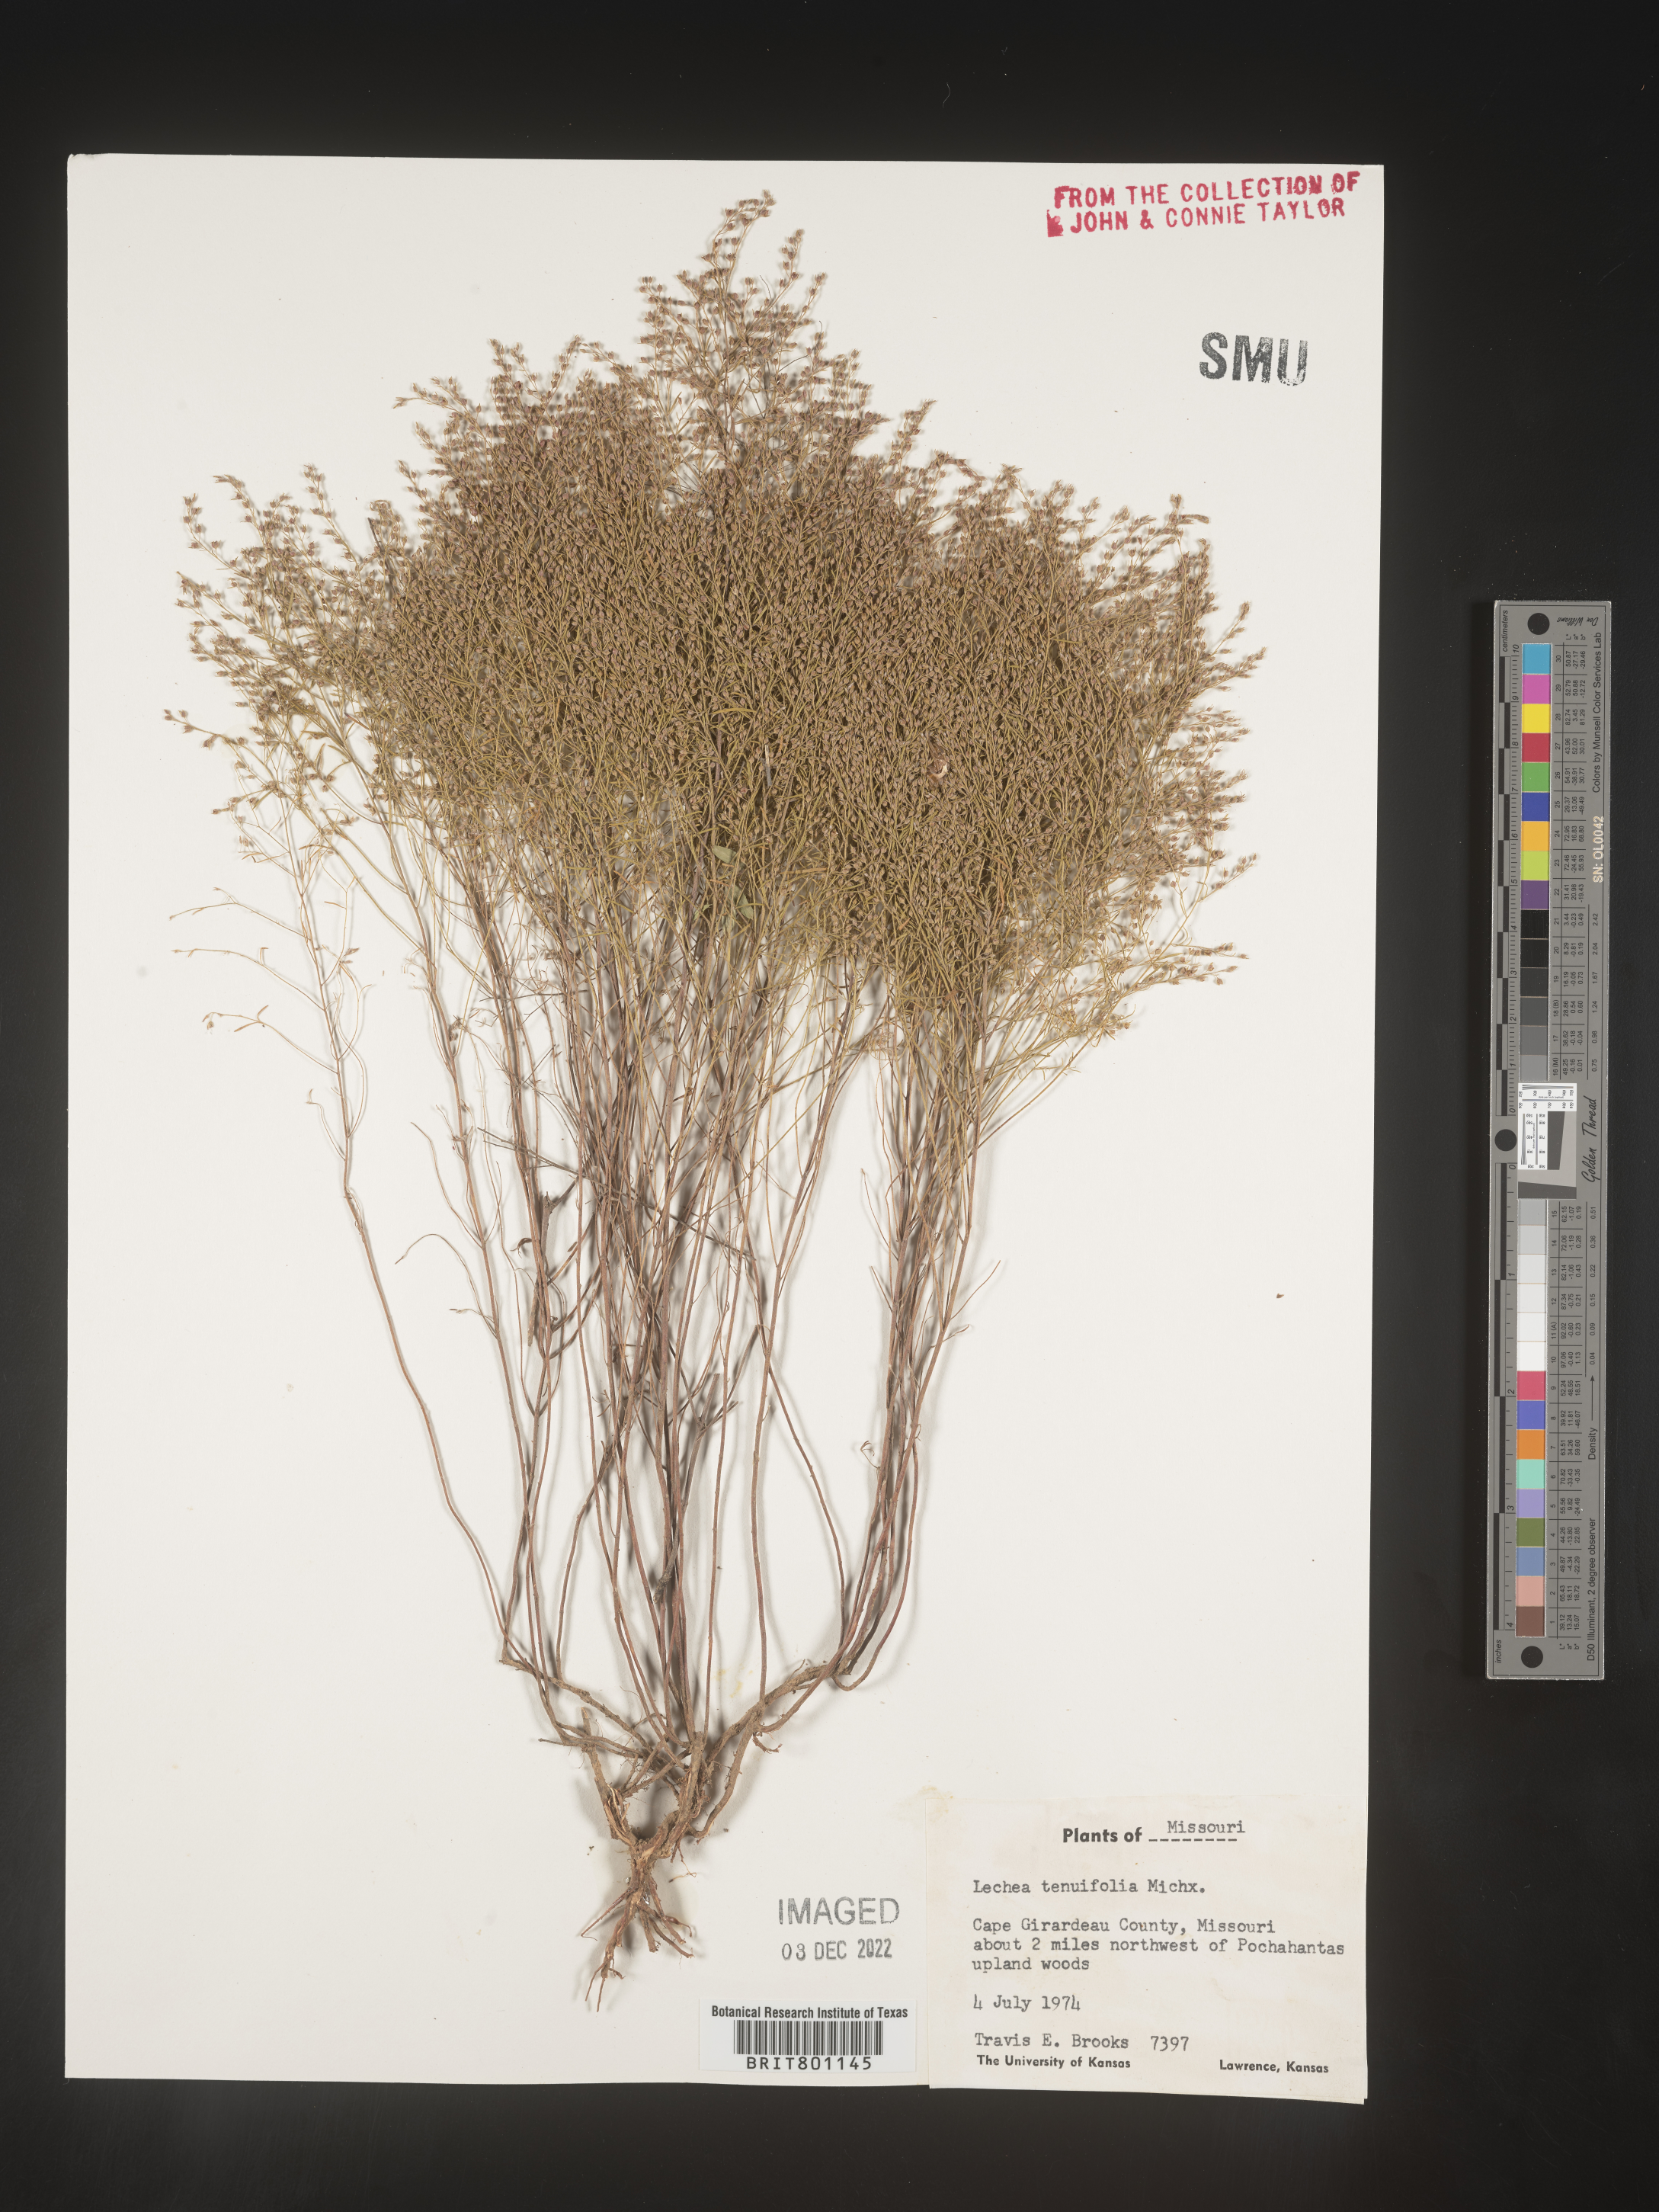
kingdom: Plantae
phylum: Tracheophyta
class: Magnoliopsida
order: Malvales
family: Cistaceae
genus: Lechea
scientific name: Lechea tenuifolia
